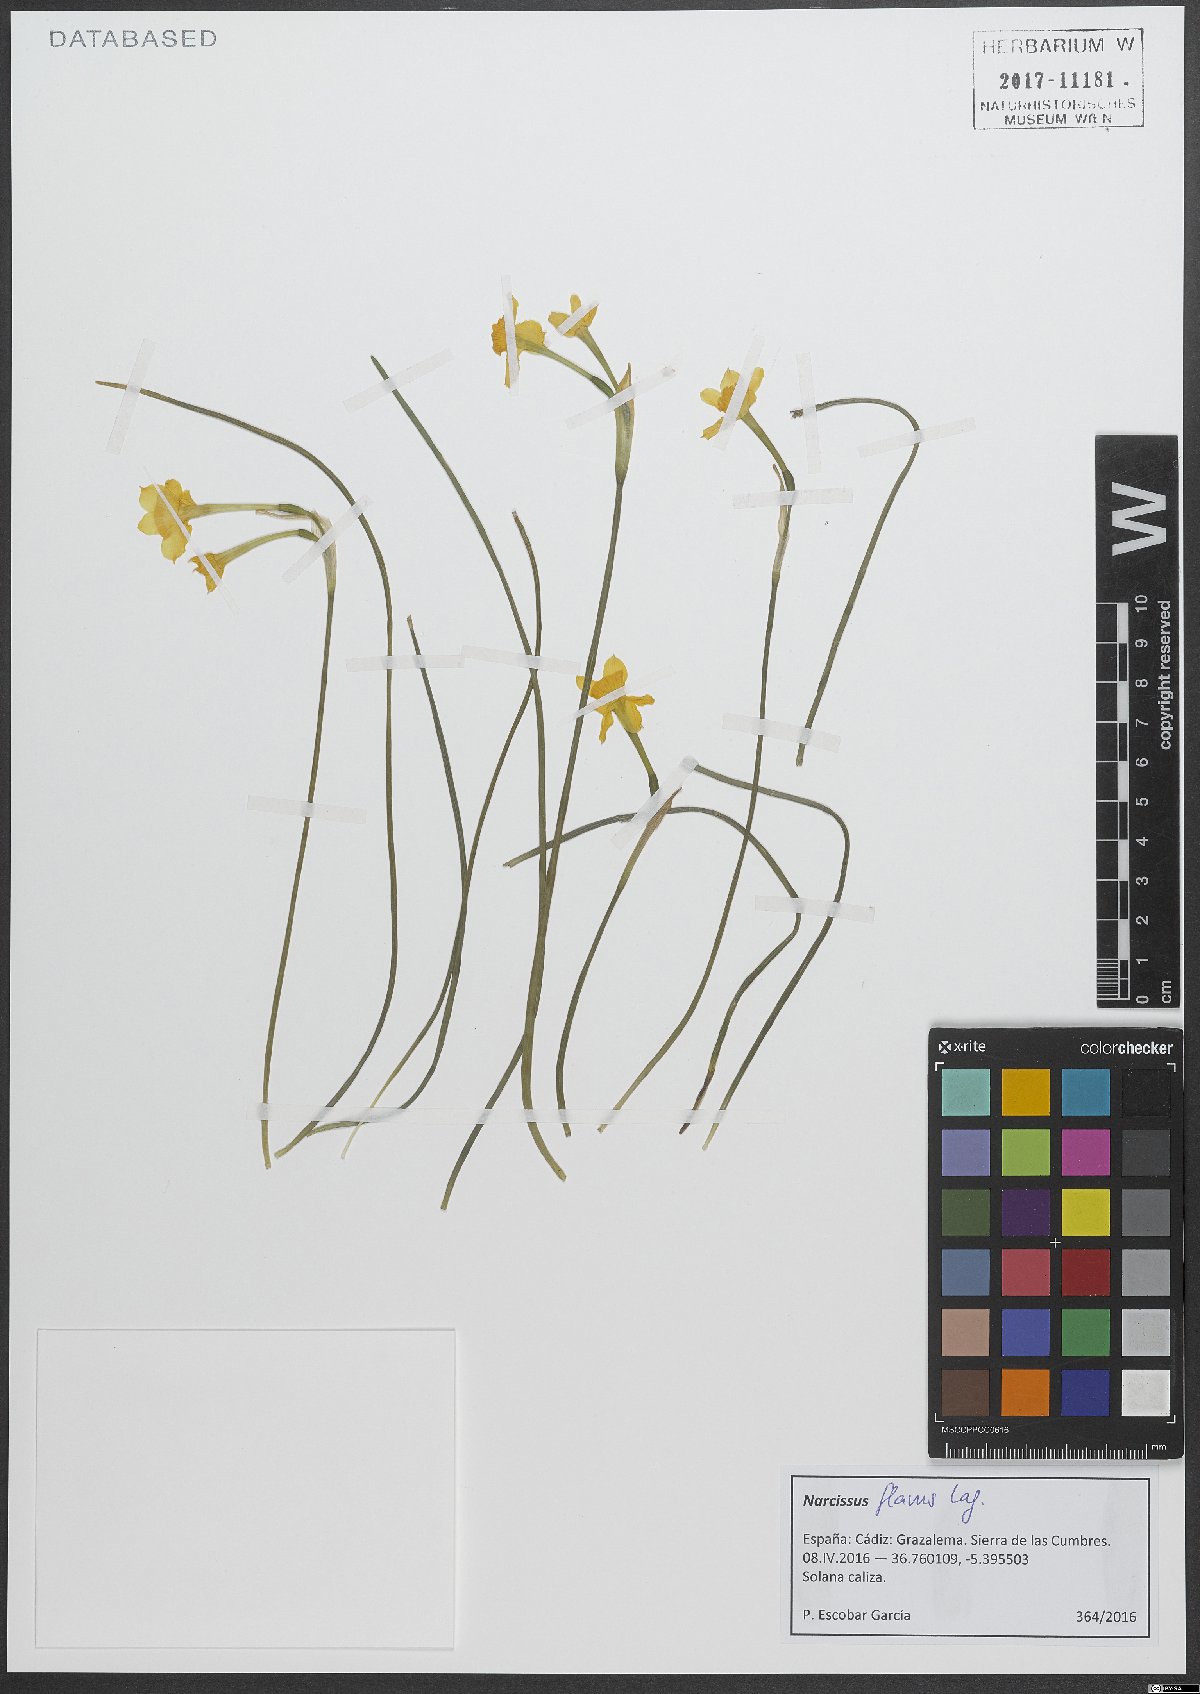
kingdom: Plantae
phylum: Tracheophyta
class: Liliopsida
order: Asparagales
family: Amaryllidaceae
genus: Narcissus
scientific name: Narcissus flavus
